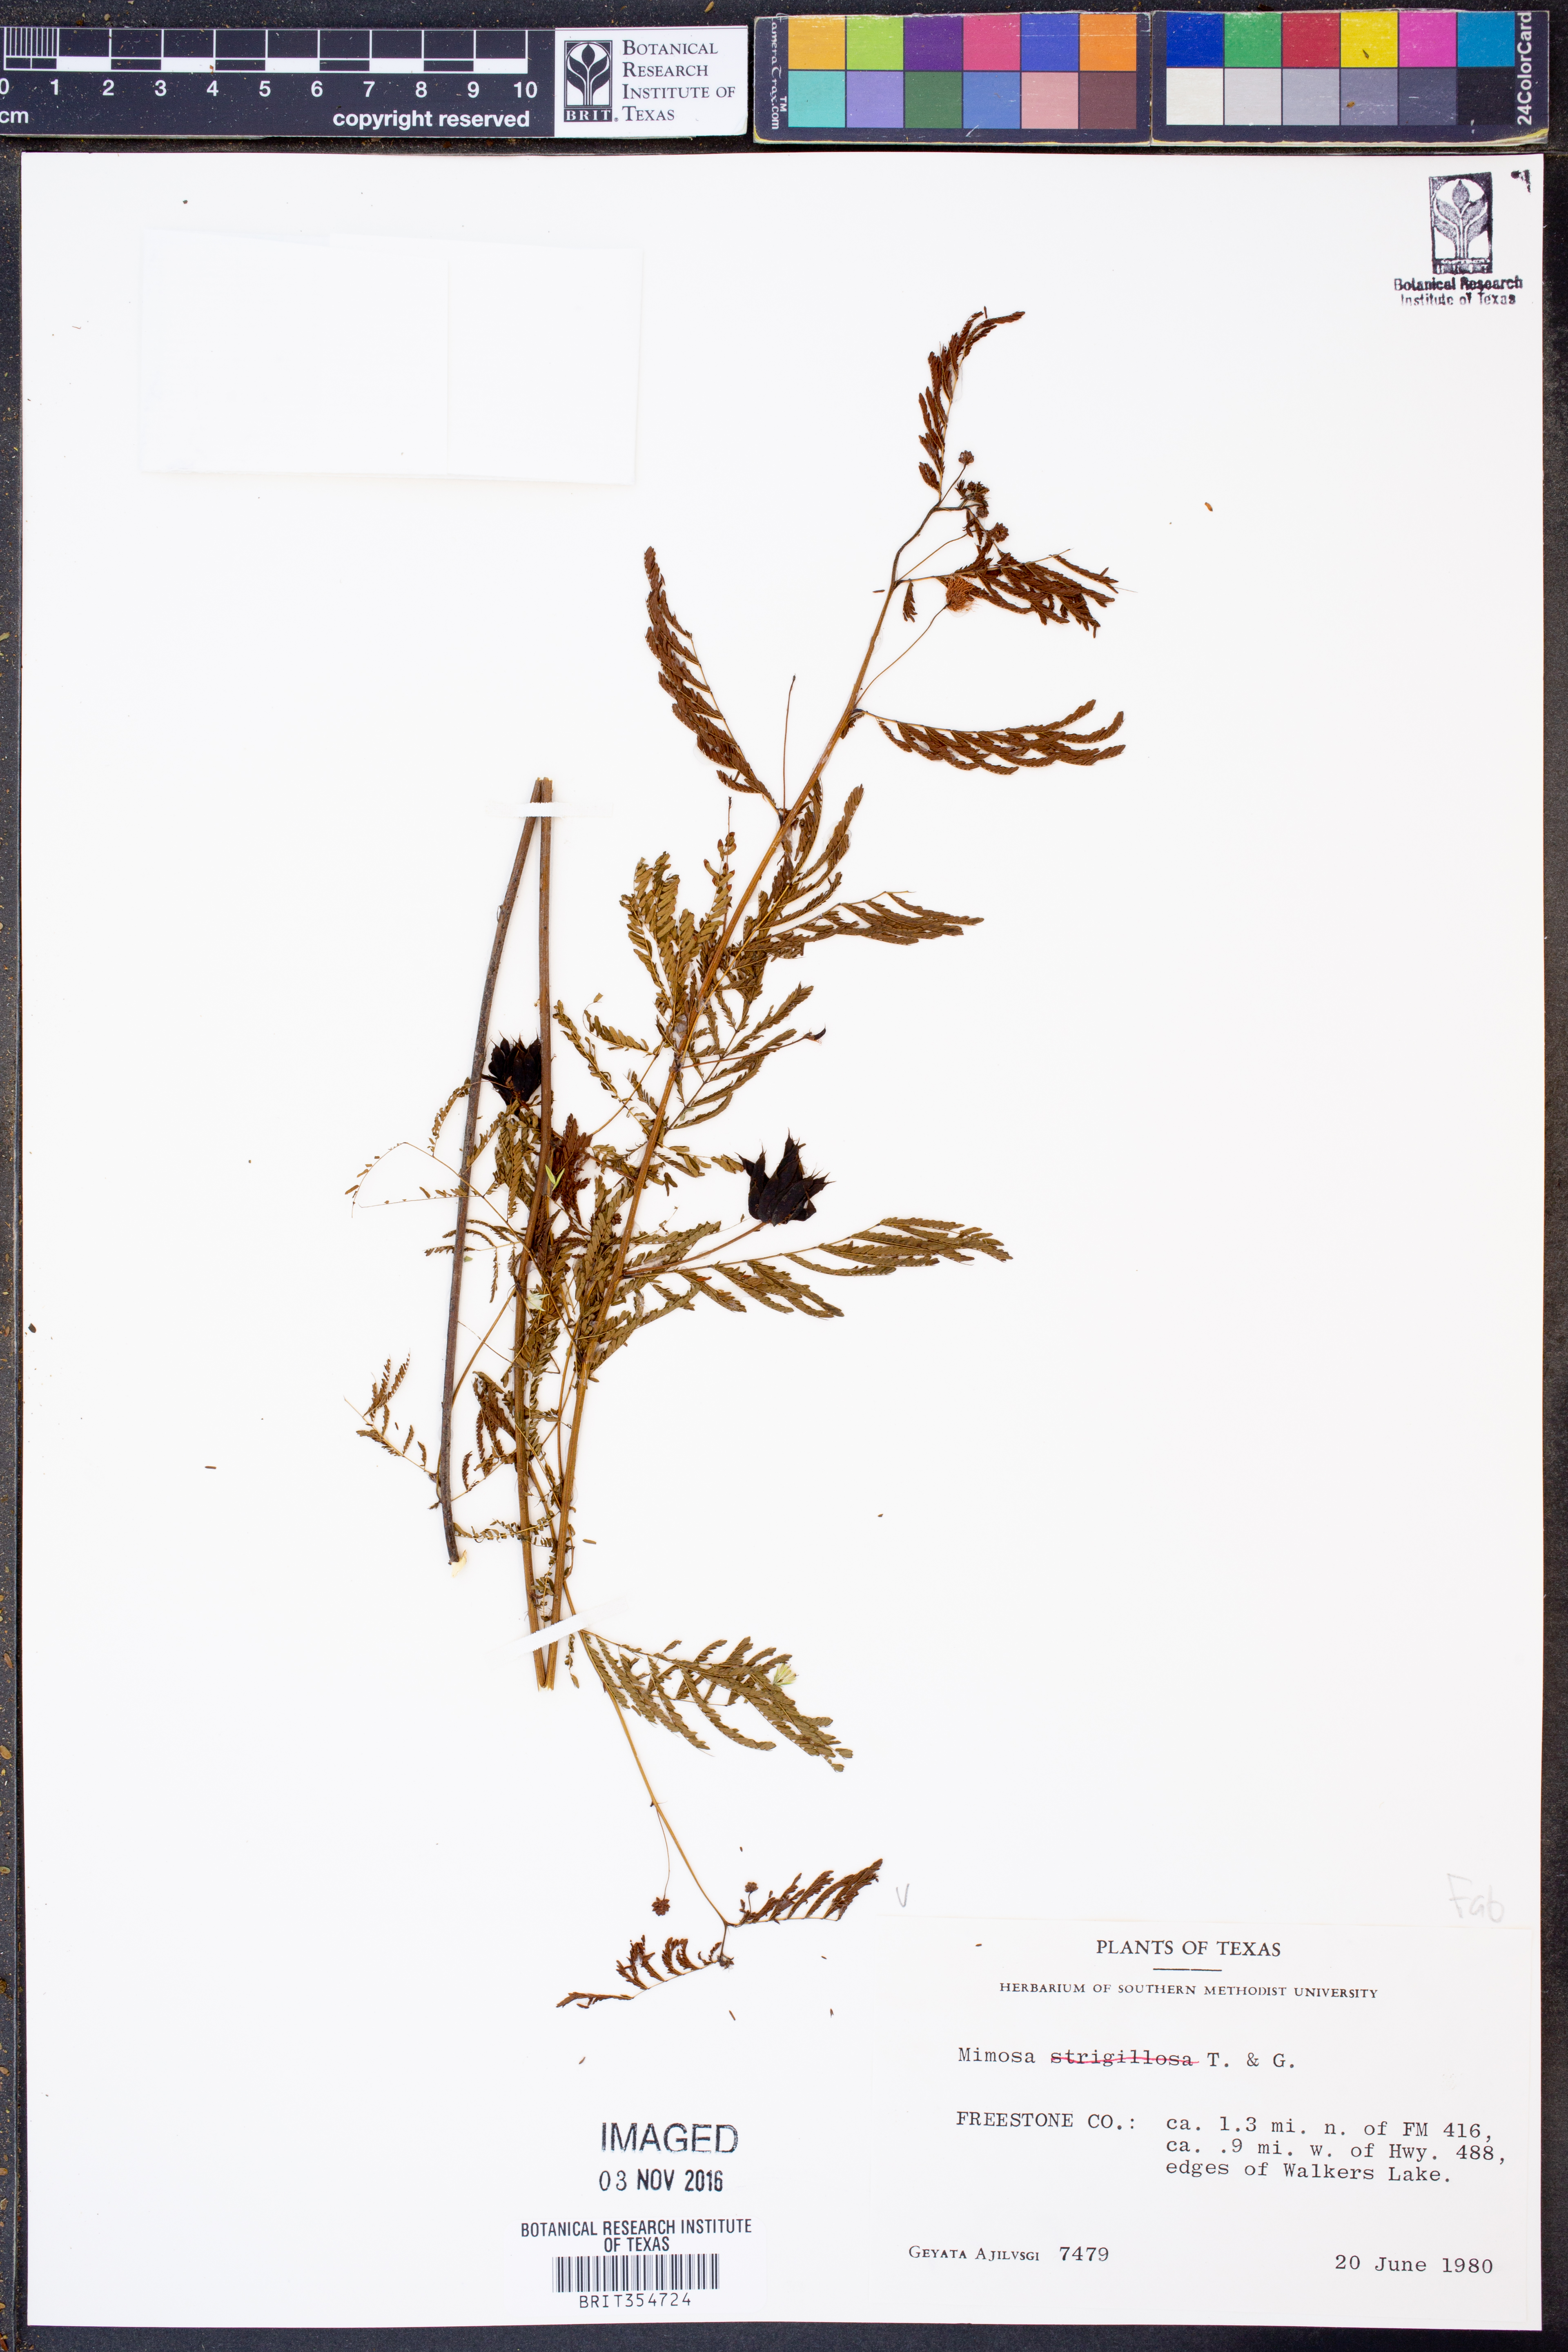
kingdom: Plantae
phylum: Tracheophyta
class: Magnoliopsida
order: Fabales
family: Fabaceae
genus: Mimosa
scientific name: Mimosa strigillosa
